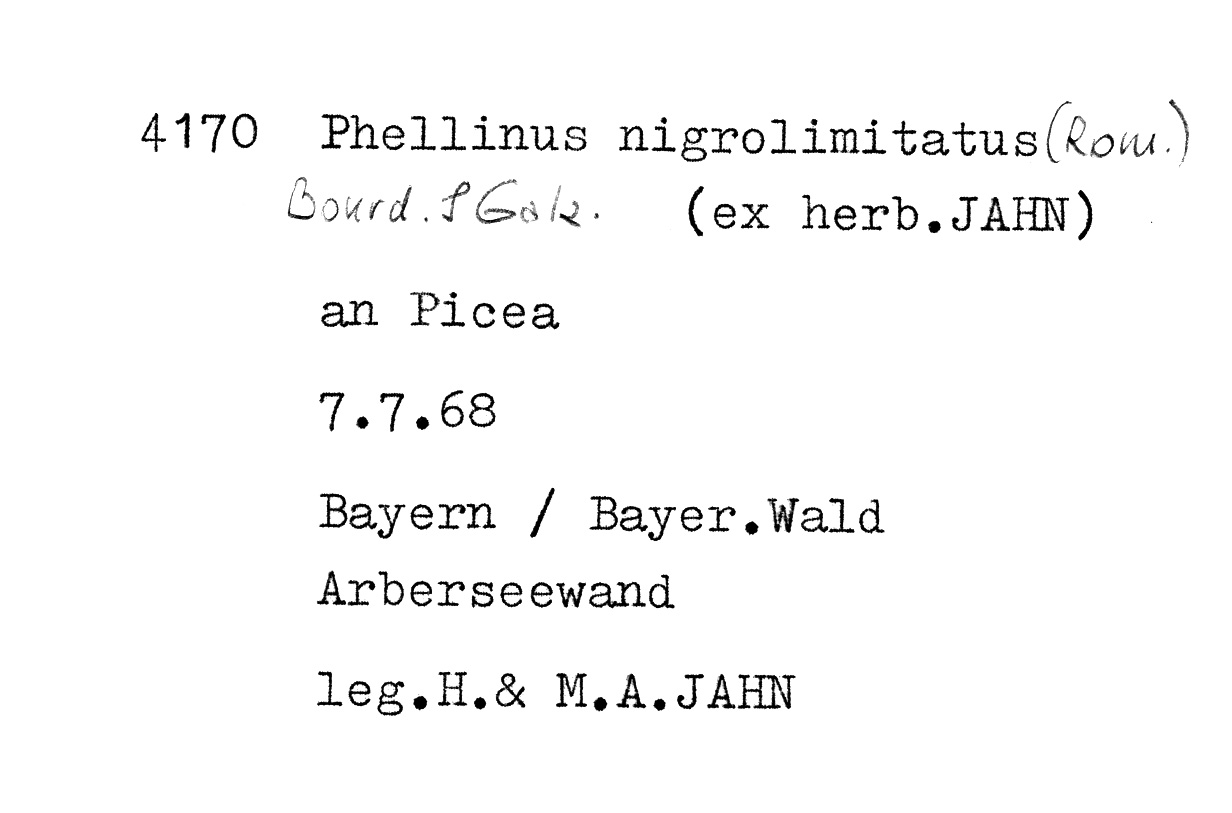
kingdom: Plantae
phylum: Tracheophyta
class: Pinopsida
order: Pinales
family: Pinaceae
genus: Picea
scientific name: Picea
